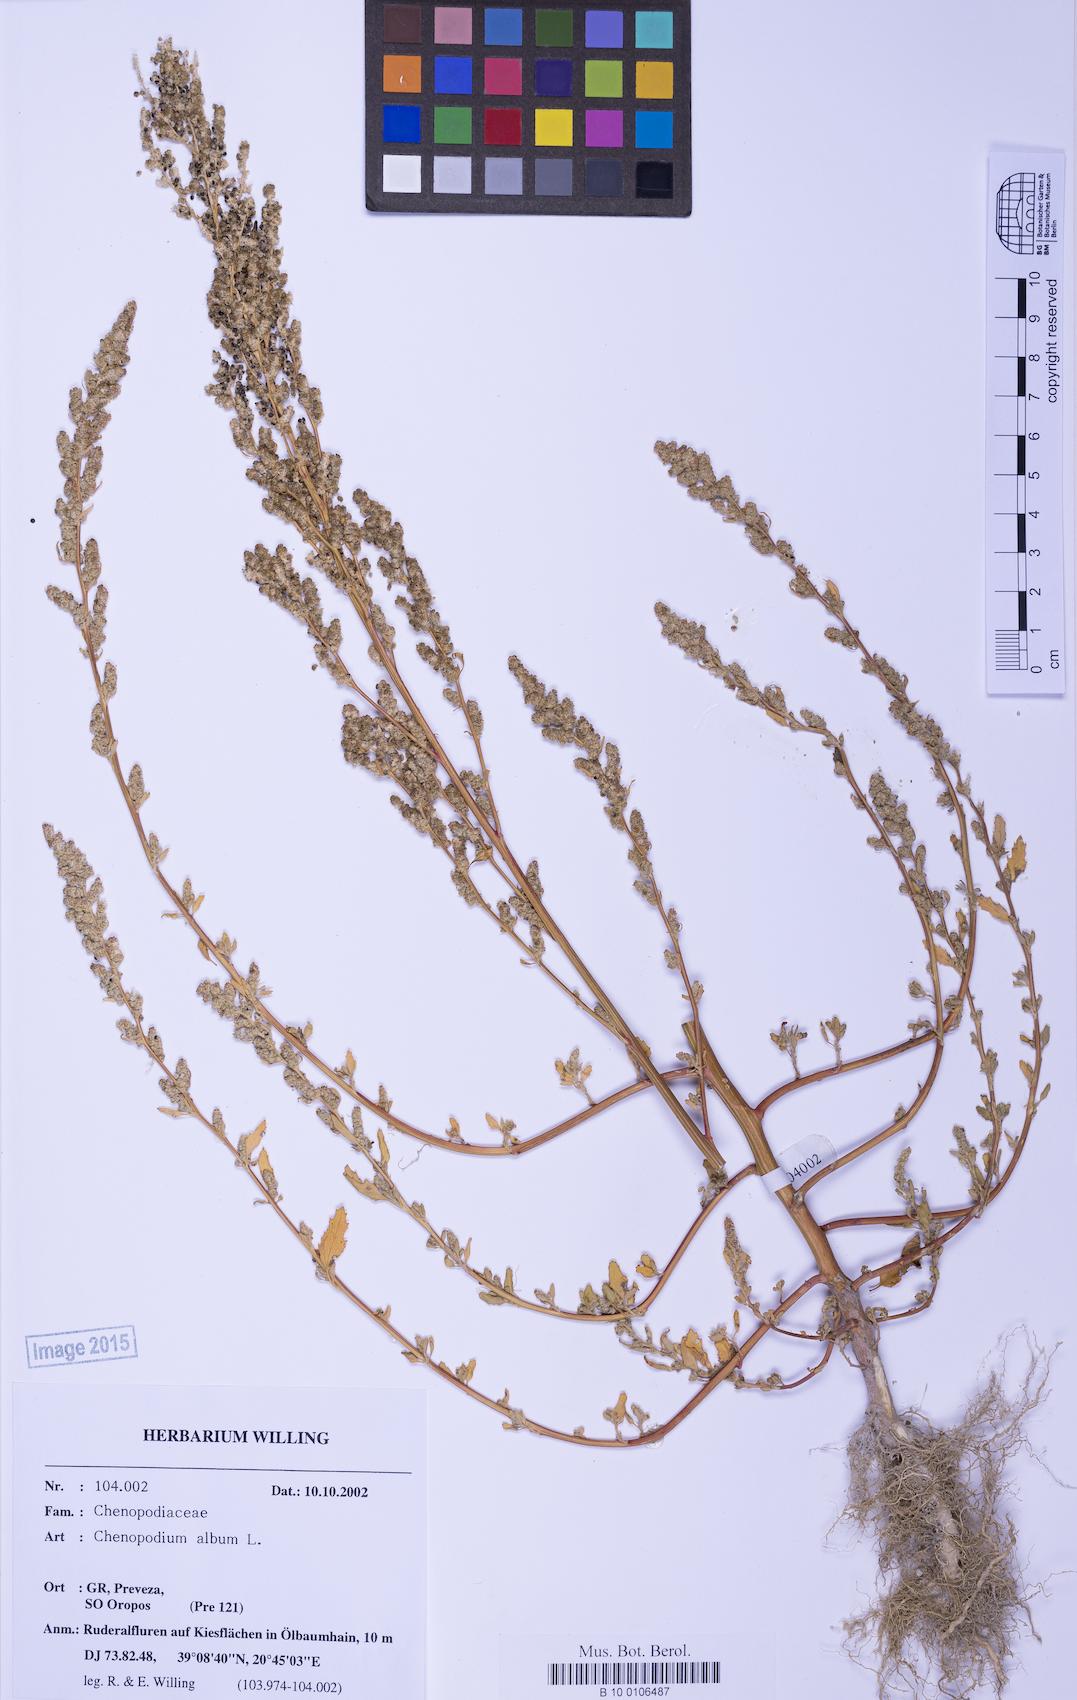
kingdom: Plantae
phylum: Tracheophyta
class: Magnoliopsida
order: Caryophyllales
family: Amaranthaceae
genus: Chenopodium
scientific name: Chenopodium striatiforme
